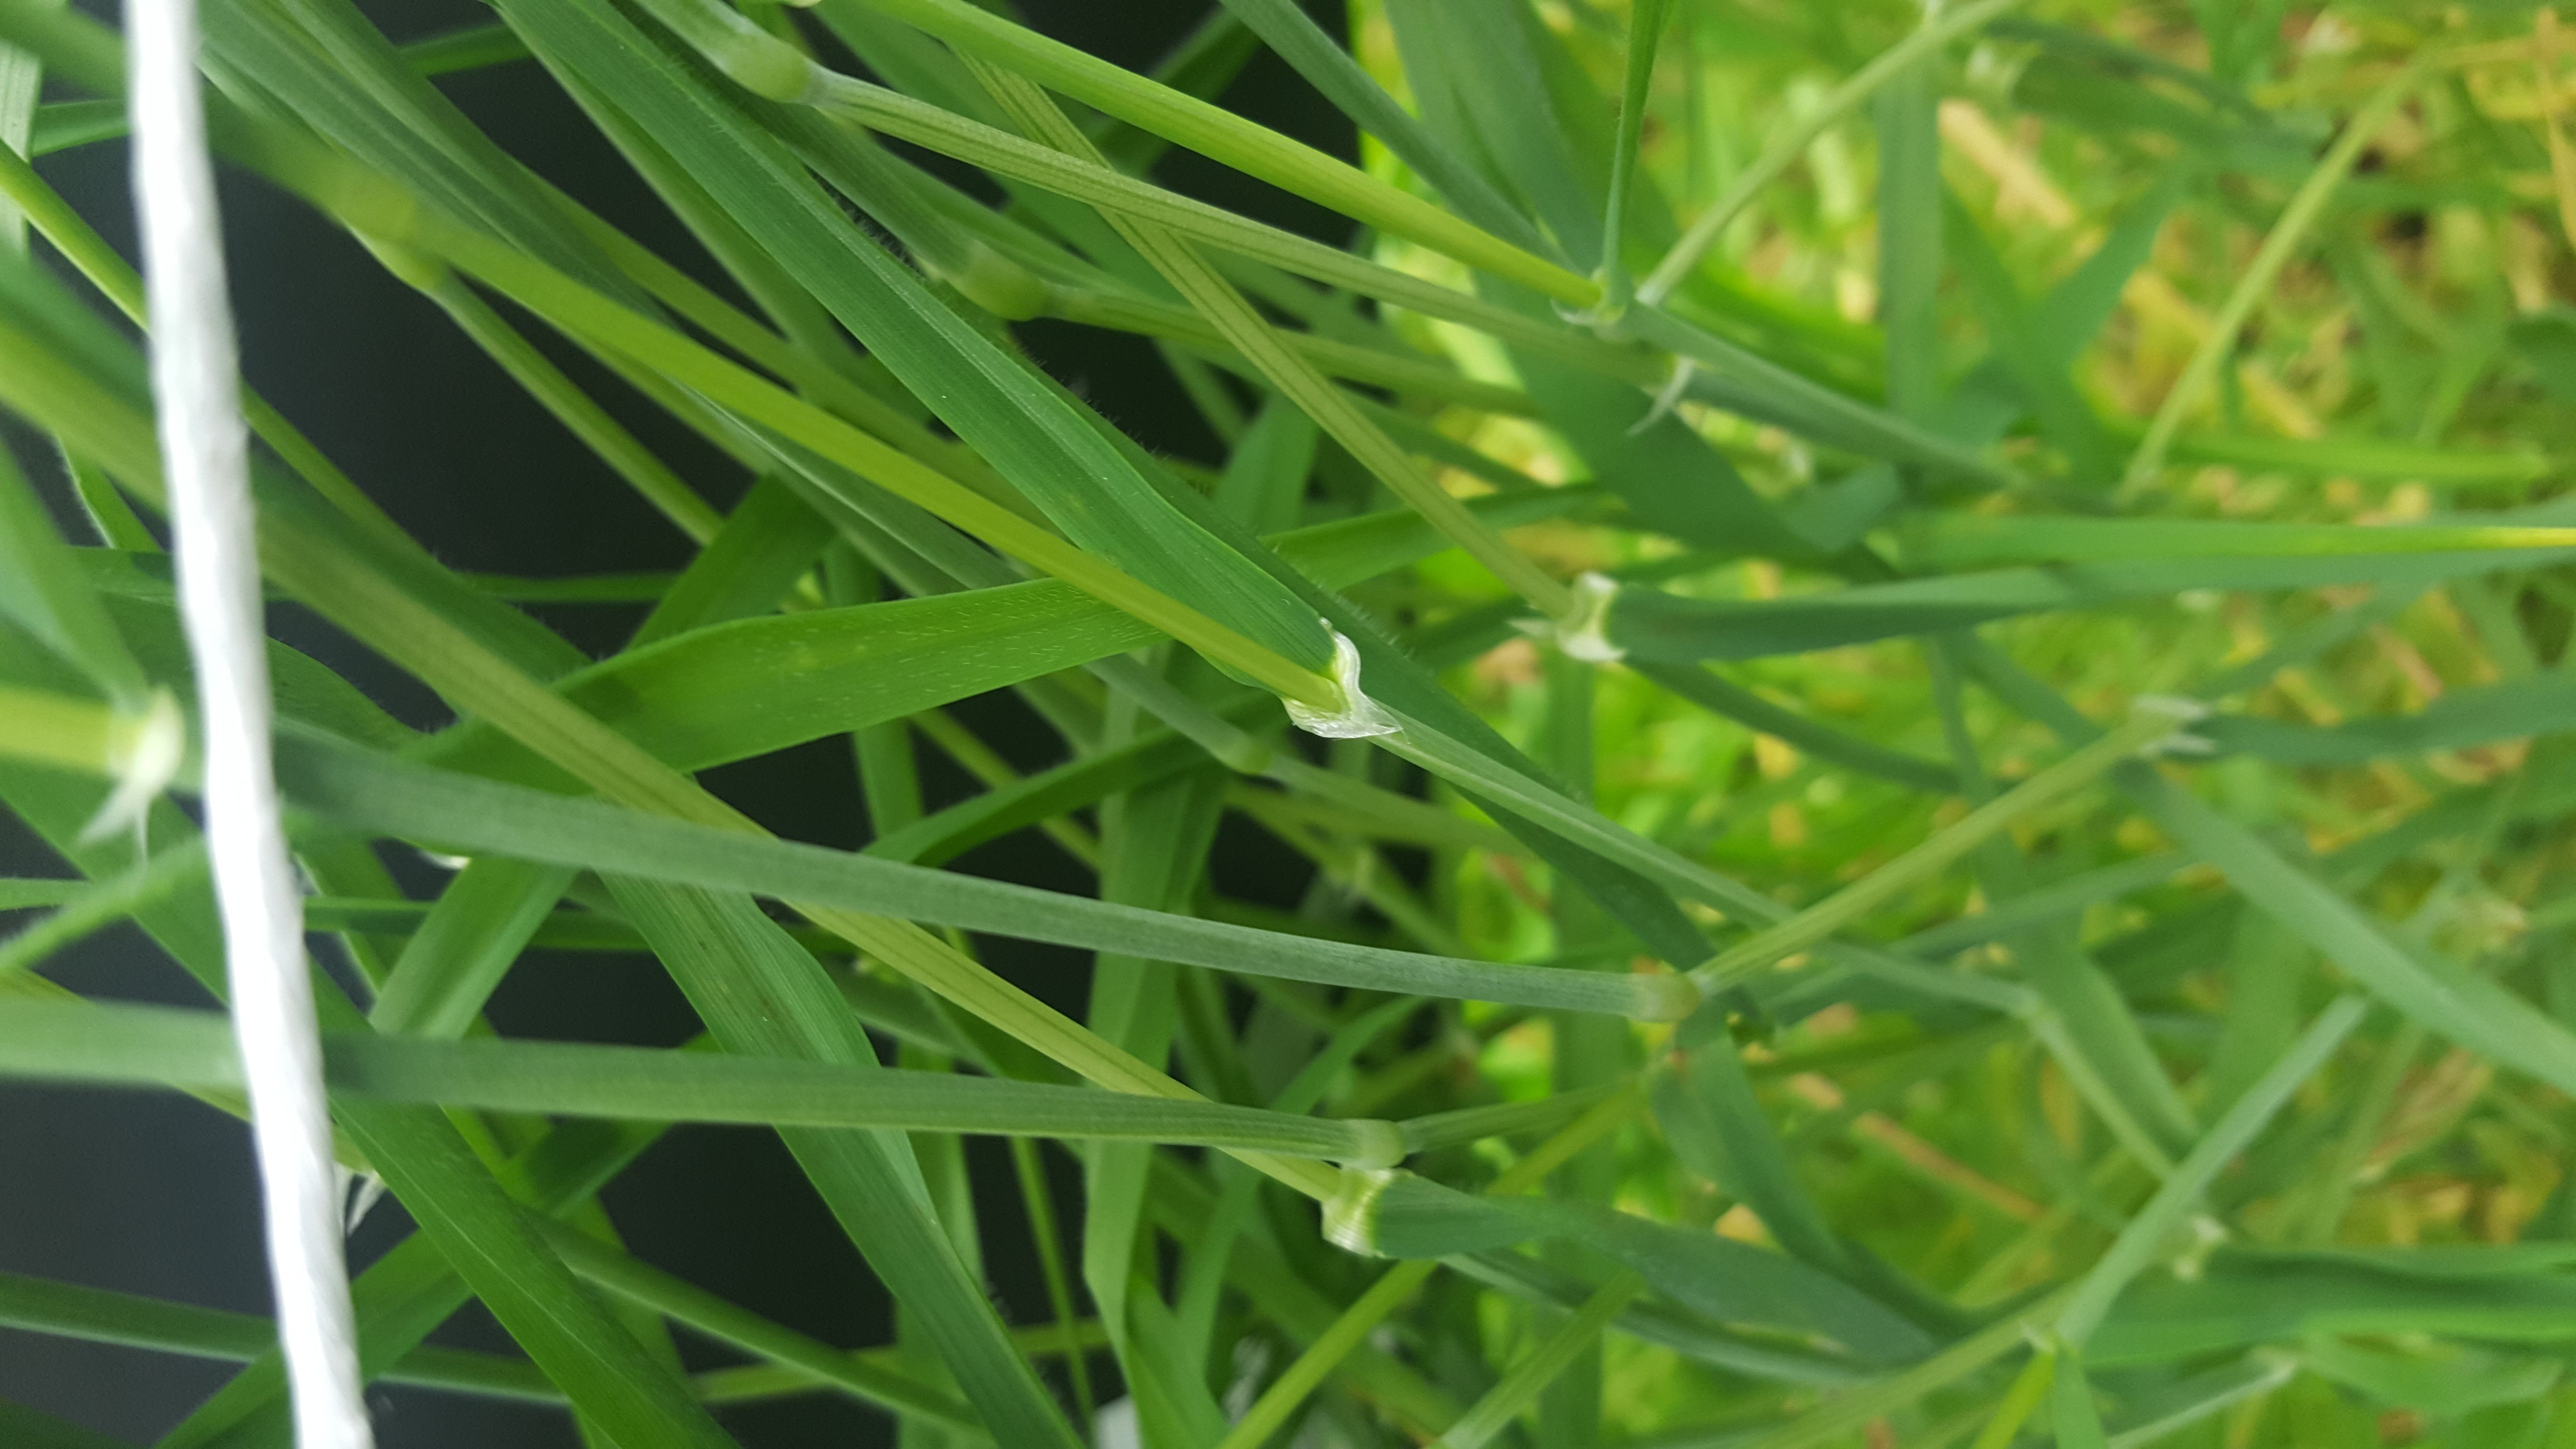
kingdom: Plantae
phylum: Tracheophyta
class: Liliopsida
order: Poales
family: Poaceae
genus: Hordeum
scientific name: Hordeum murinum
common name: Wall barley
